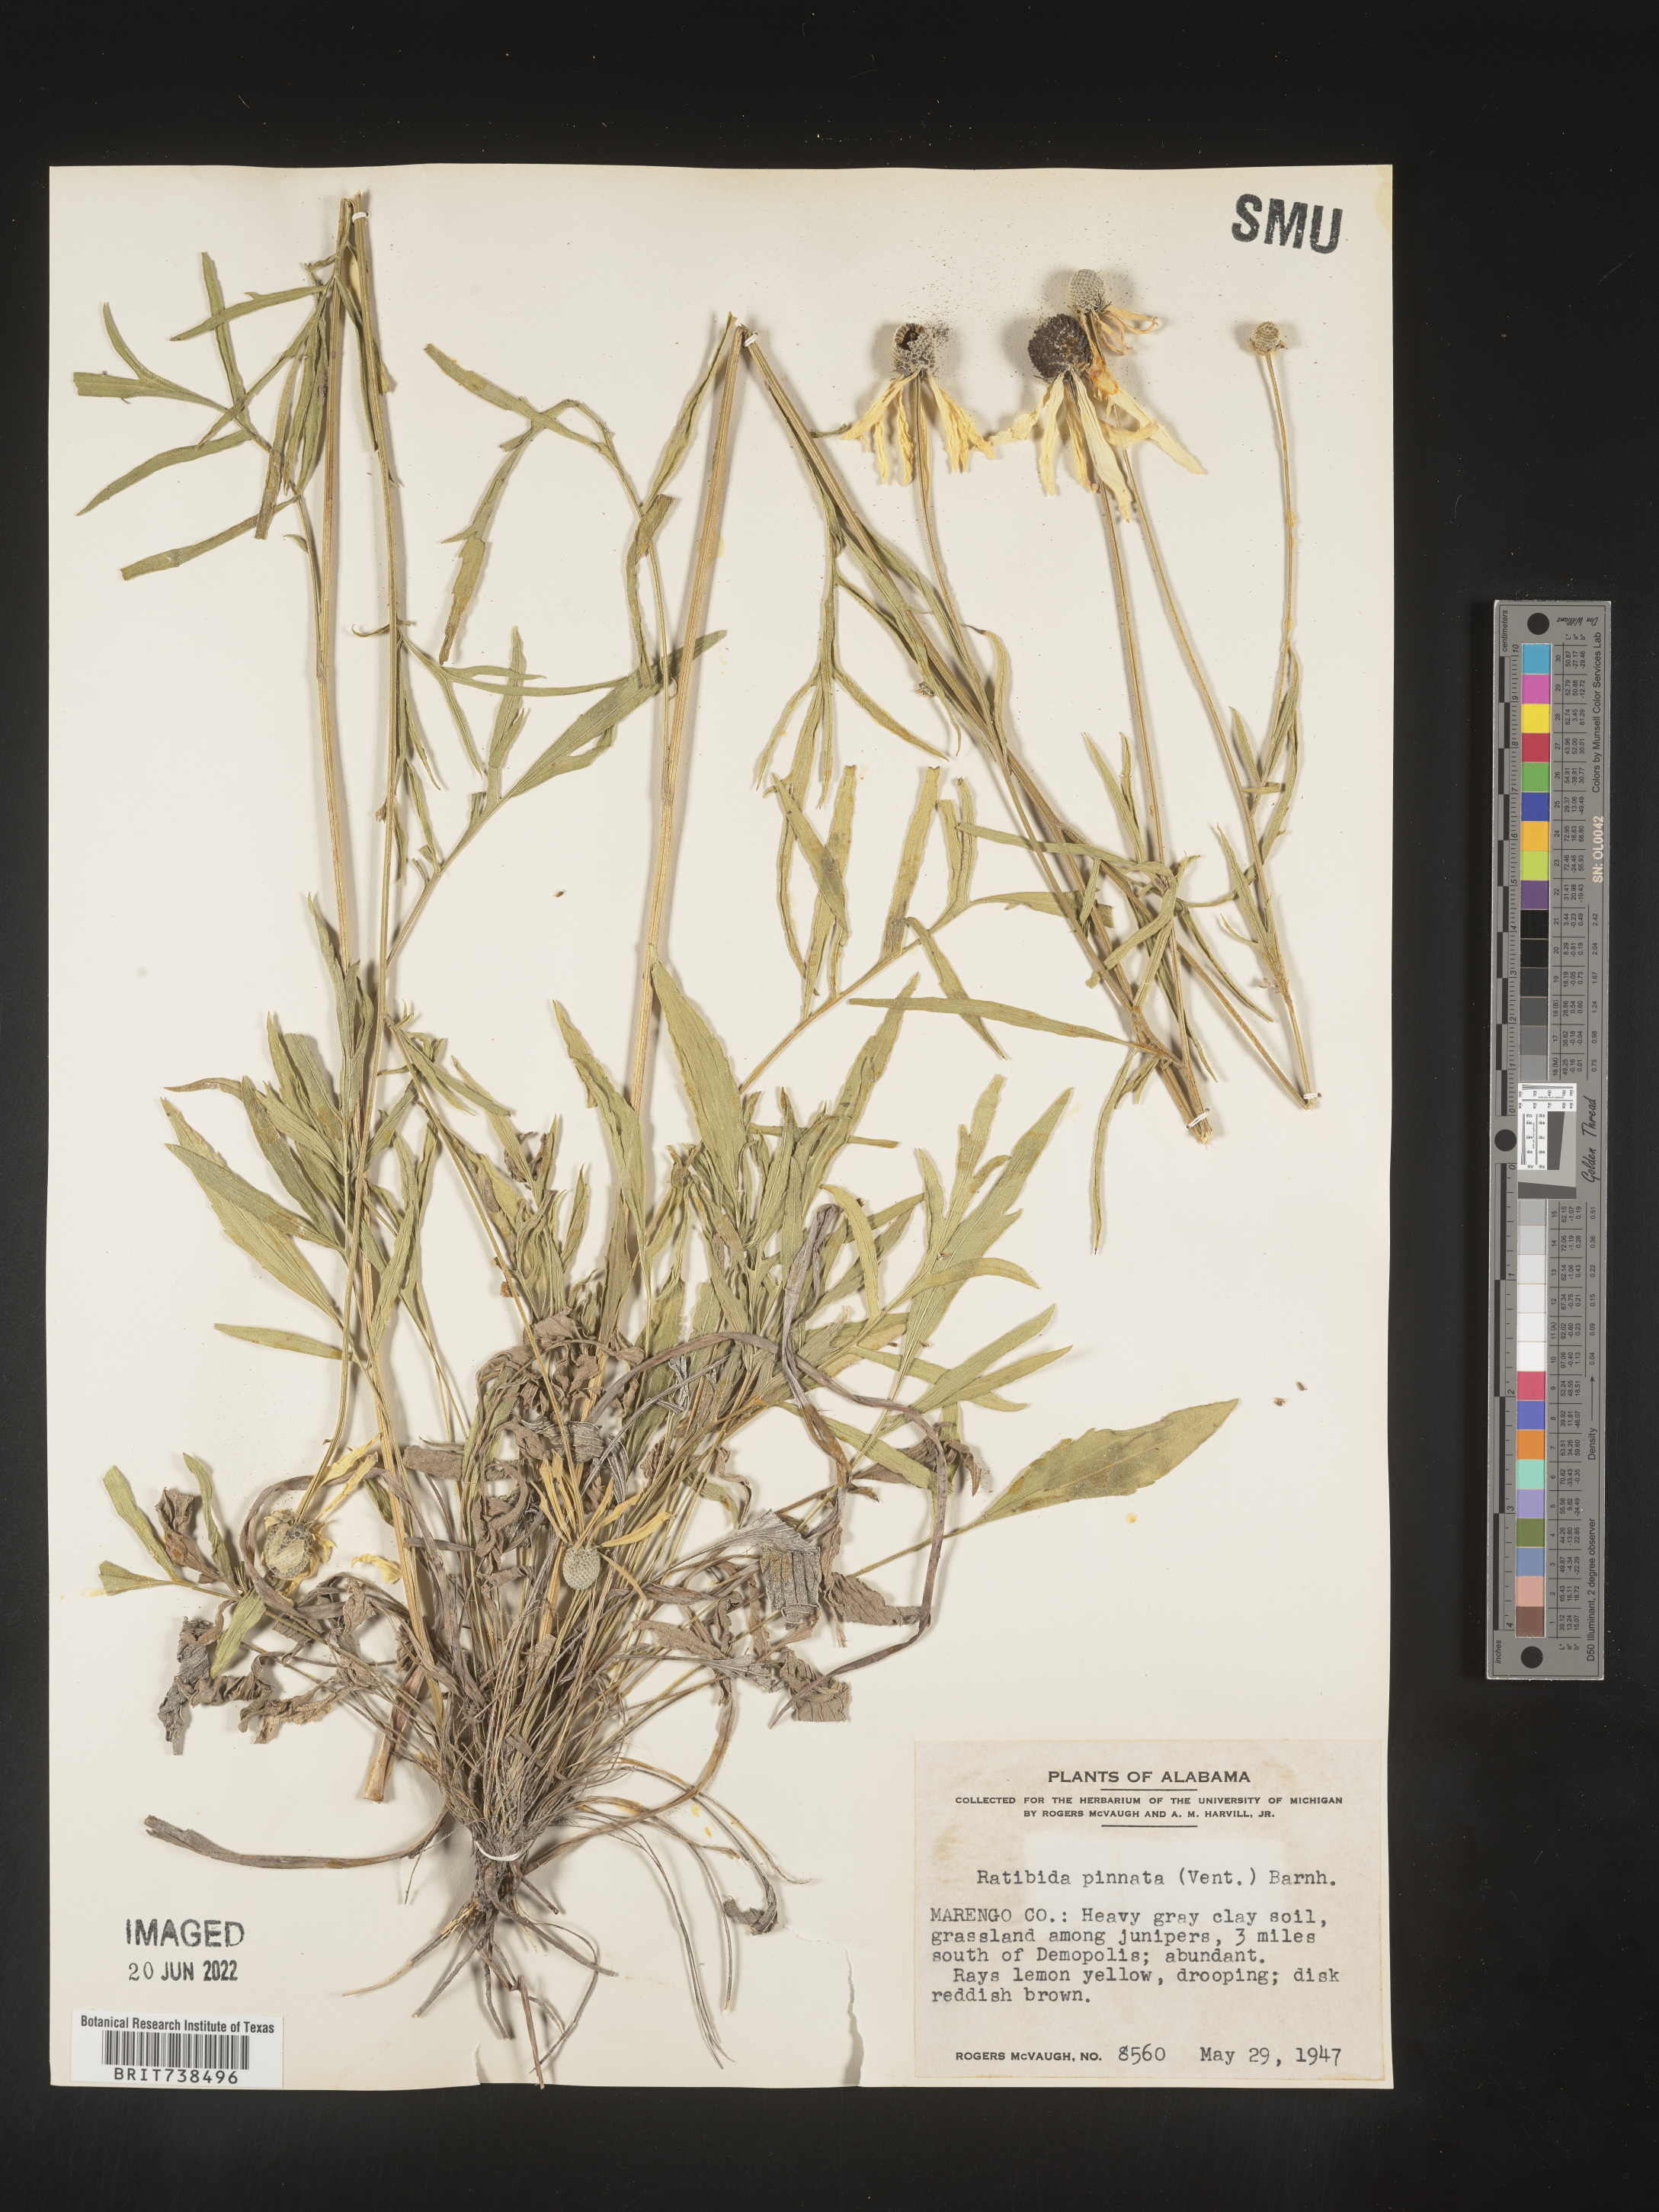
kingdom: Plantae
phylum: Tracheophyta
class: Magnoliopsida
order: Asterales
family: Asteraceae
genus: Ratibida
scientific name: Ratibida pinnata
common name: Drooping prairie-coneflower
